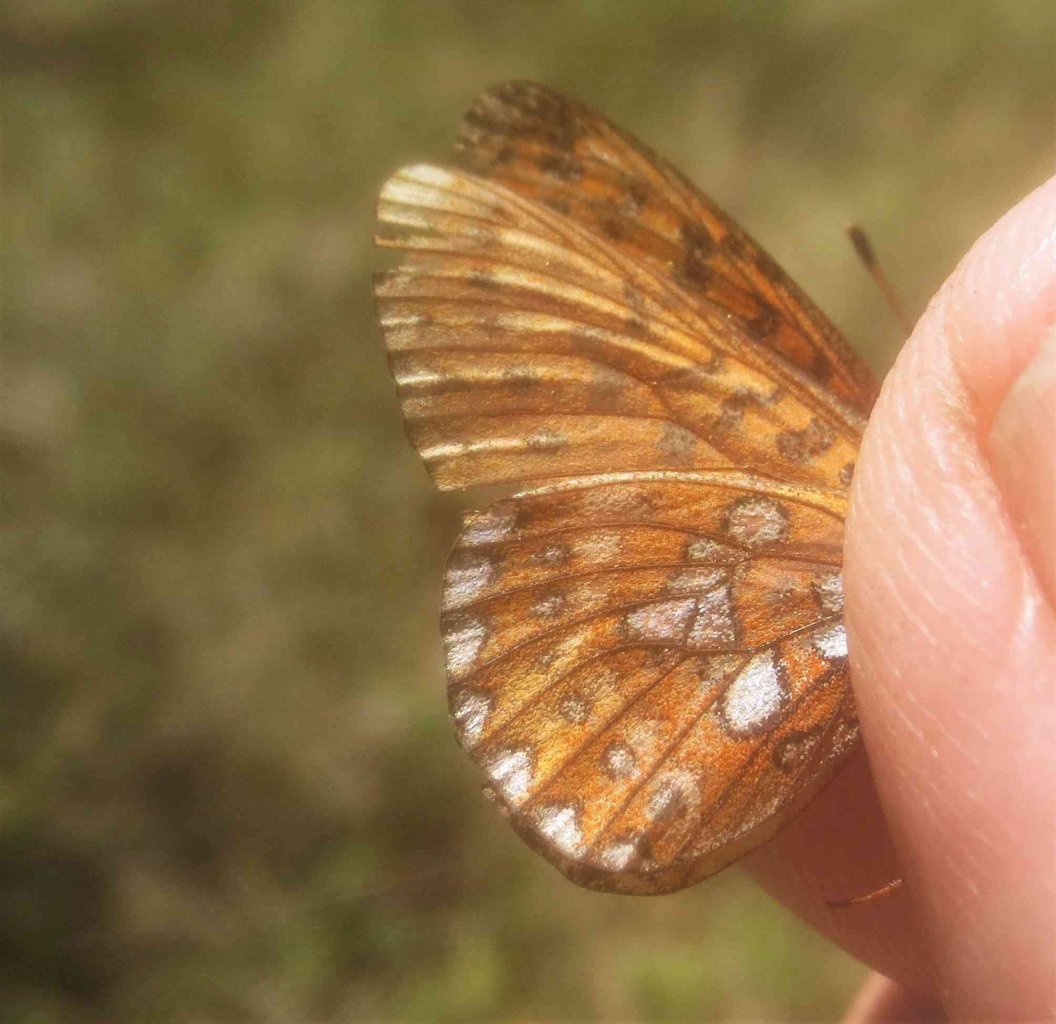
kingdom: Animalia
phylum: Arthropoda
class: Insecta
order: Lepidoptera
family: Nymphalidae
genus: Boloria
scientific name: Boloria eunomia
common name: Bog Fritillary
